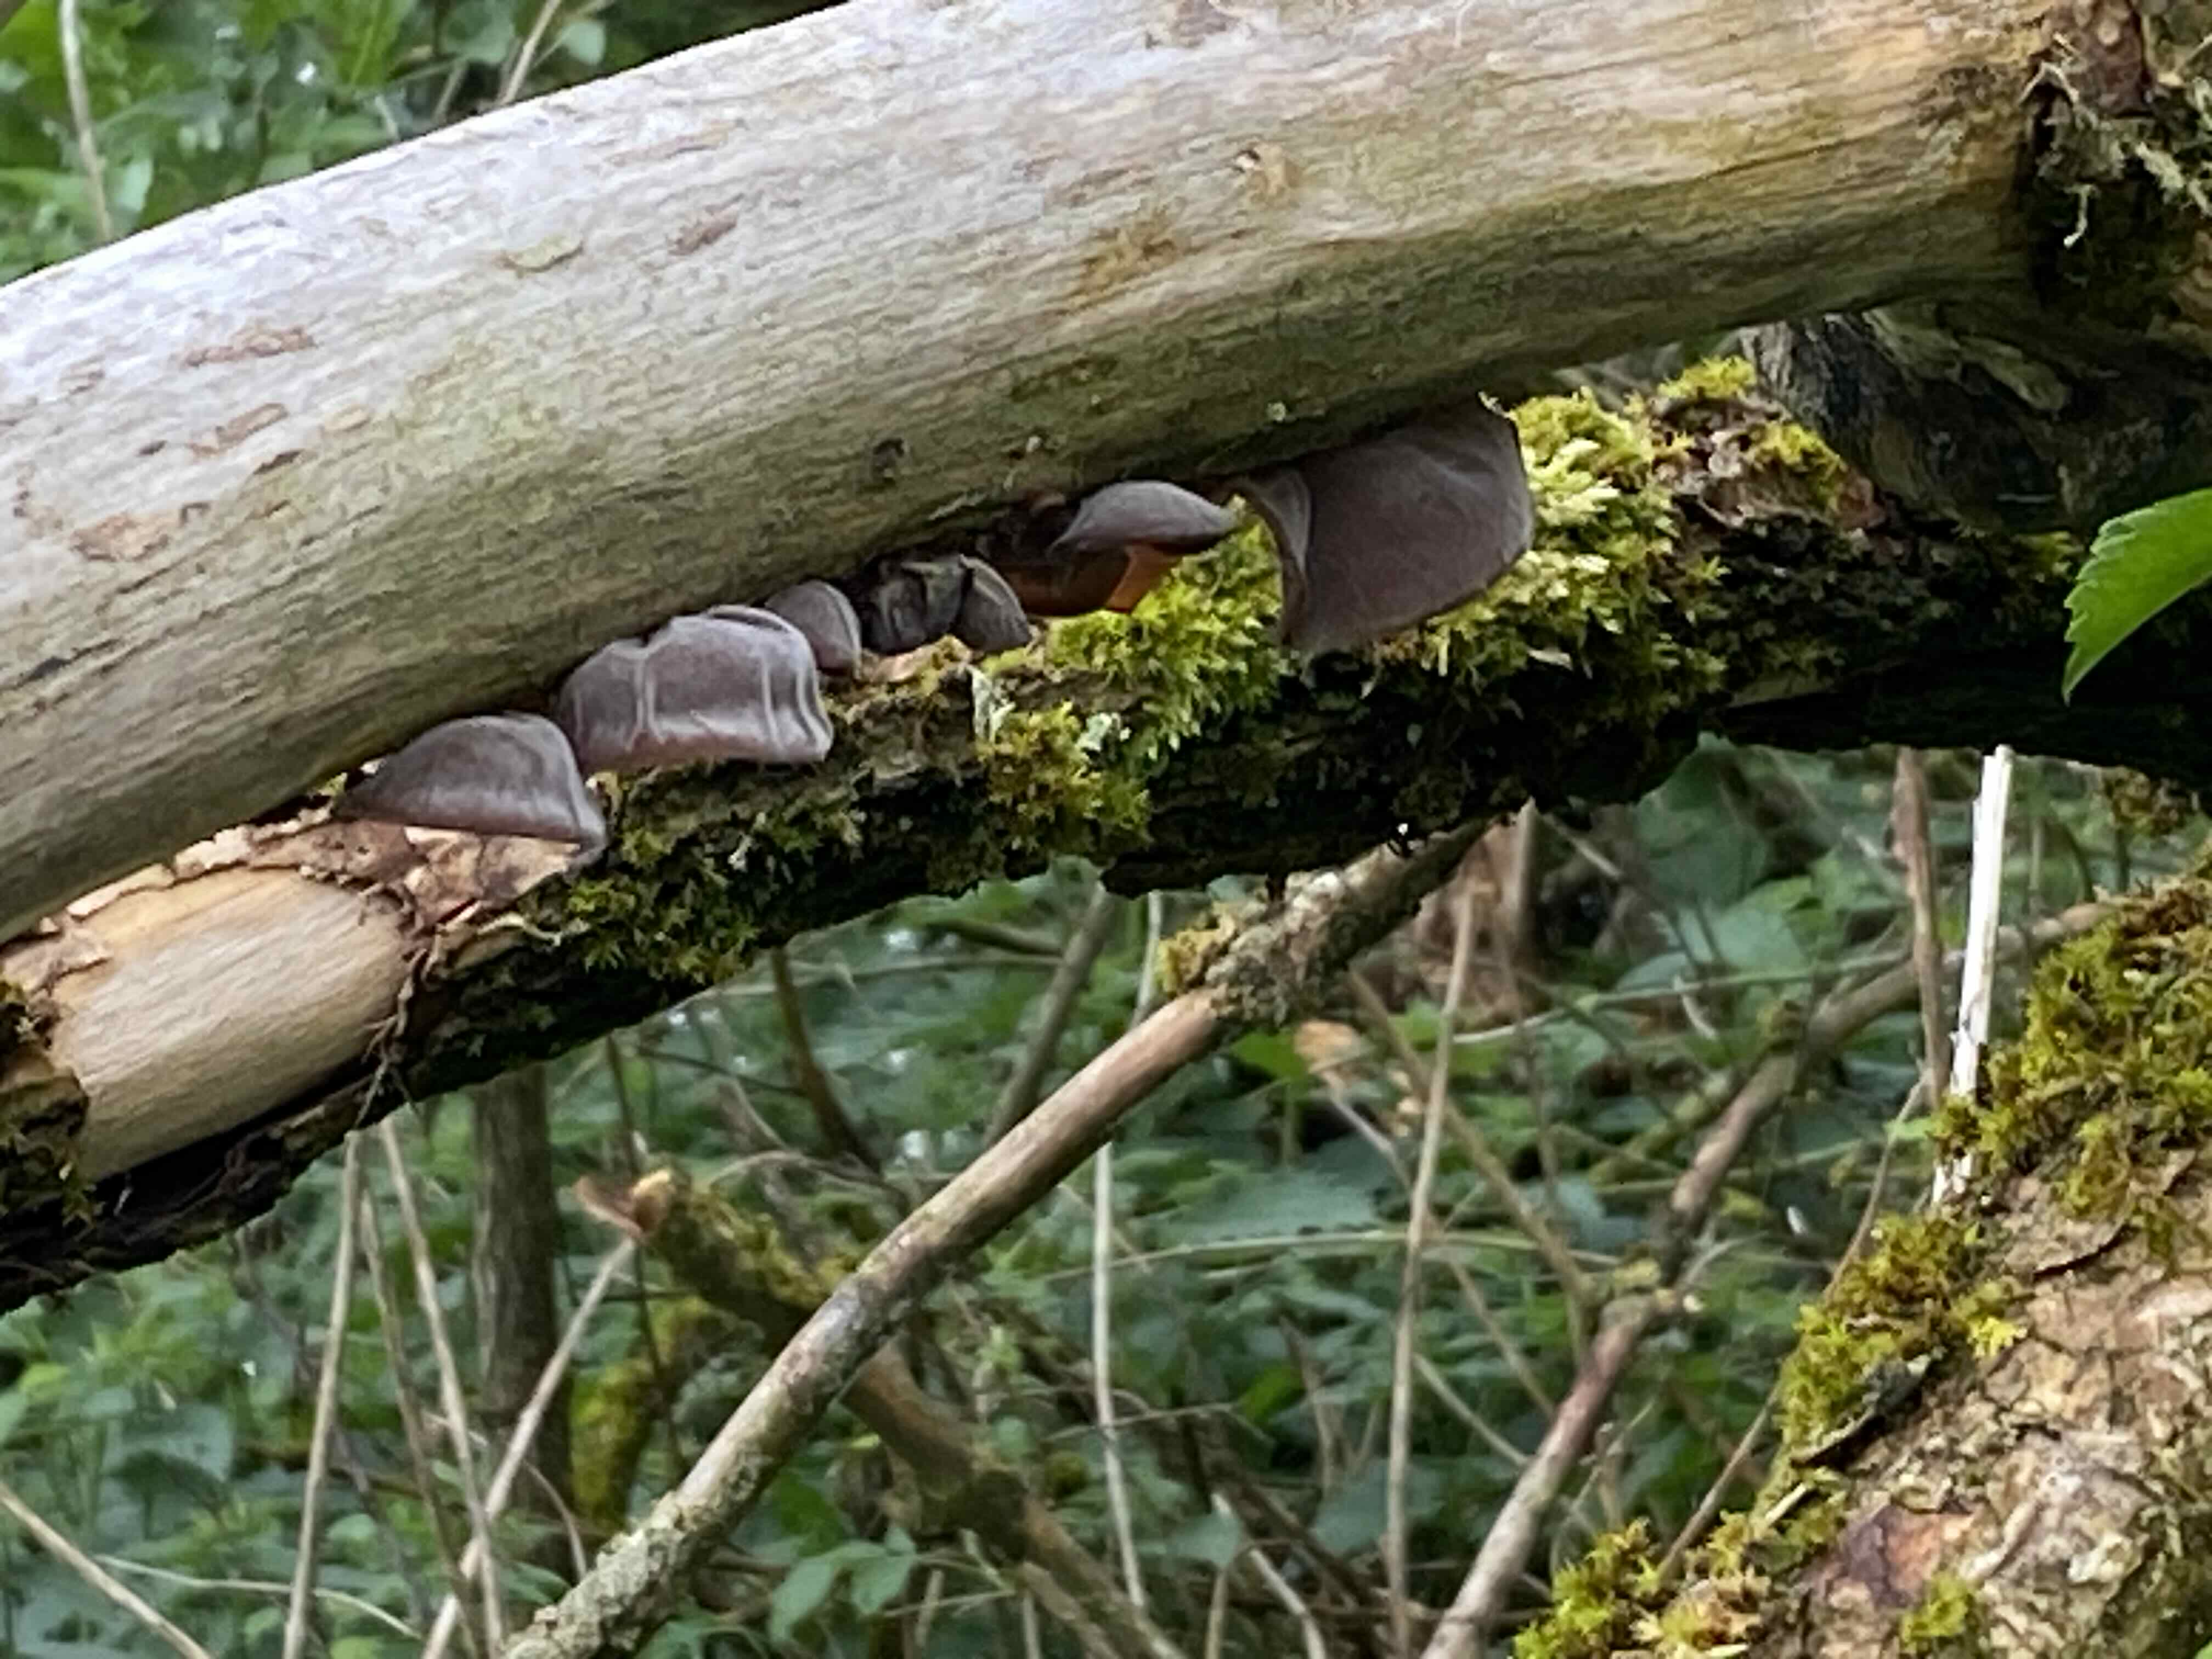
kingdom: Fungi
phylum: Basidiomycota
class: Agaricomycetes
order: Auriculariales
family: Auriculariaceae
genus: Auricularia
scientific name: Auricularia auricula-judae
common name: almindelig judasøre
